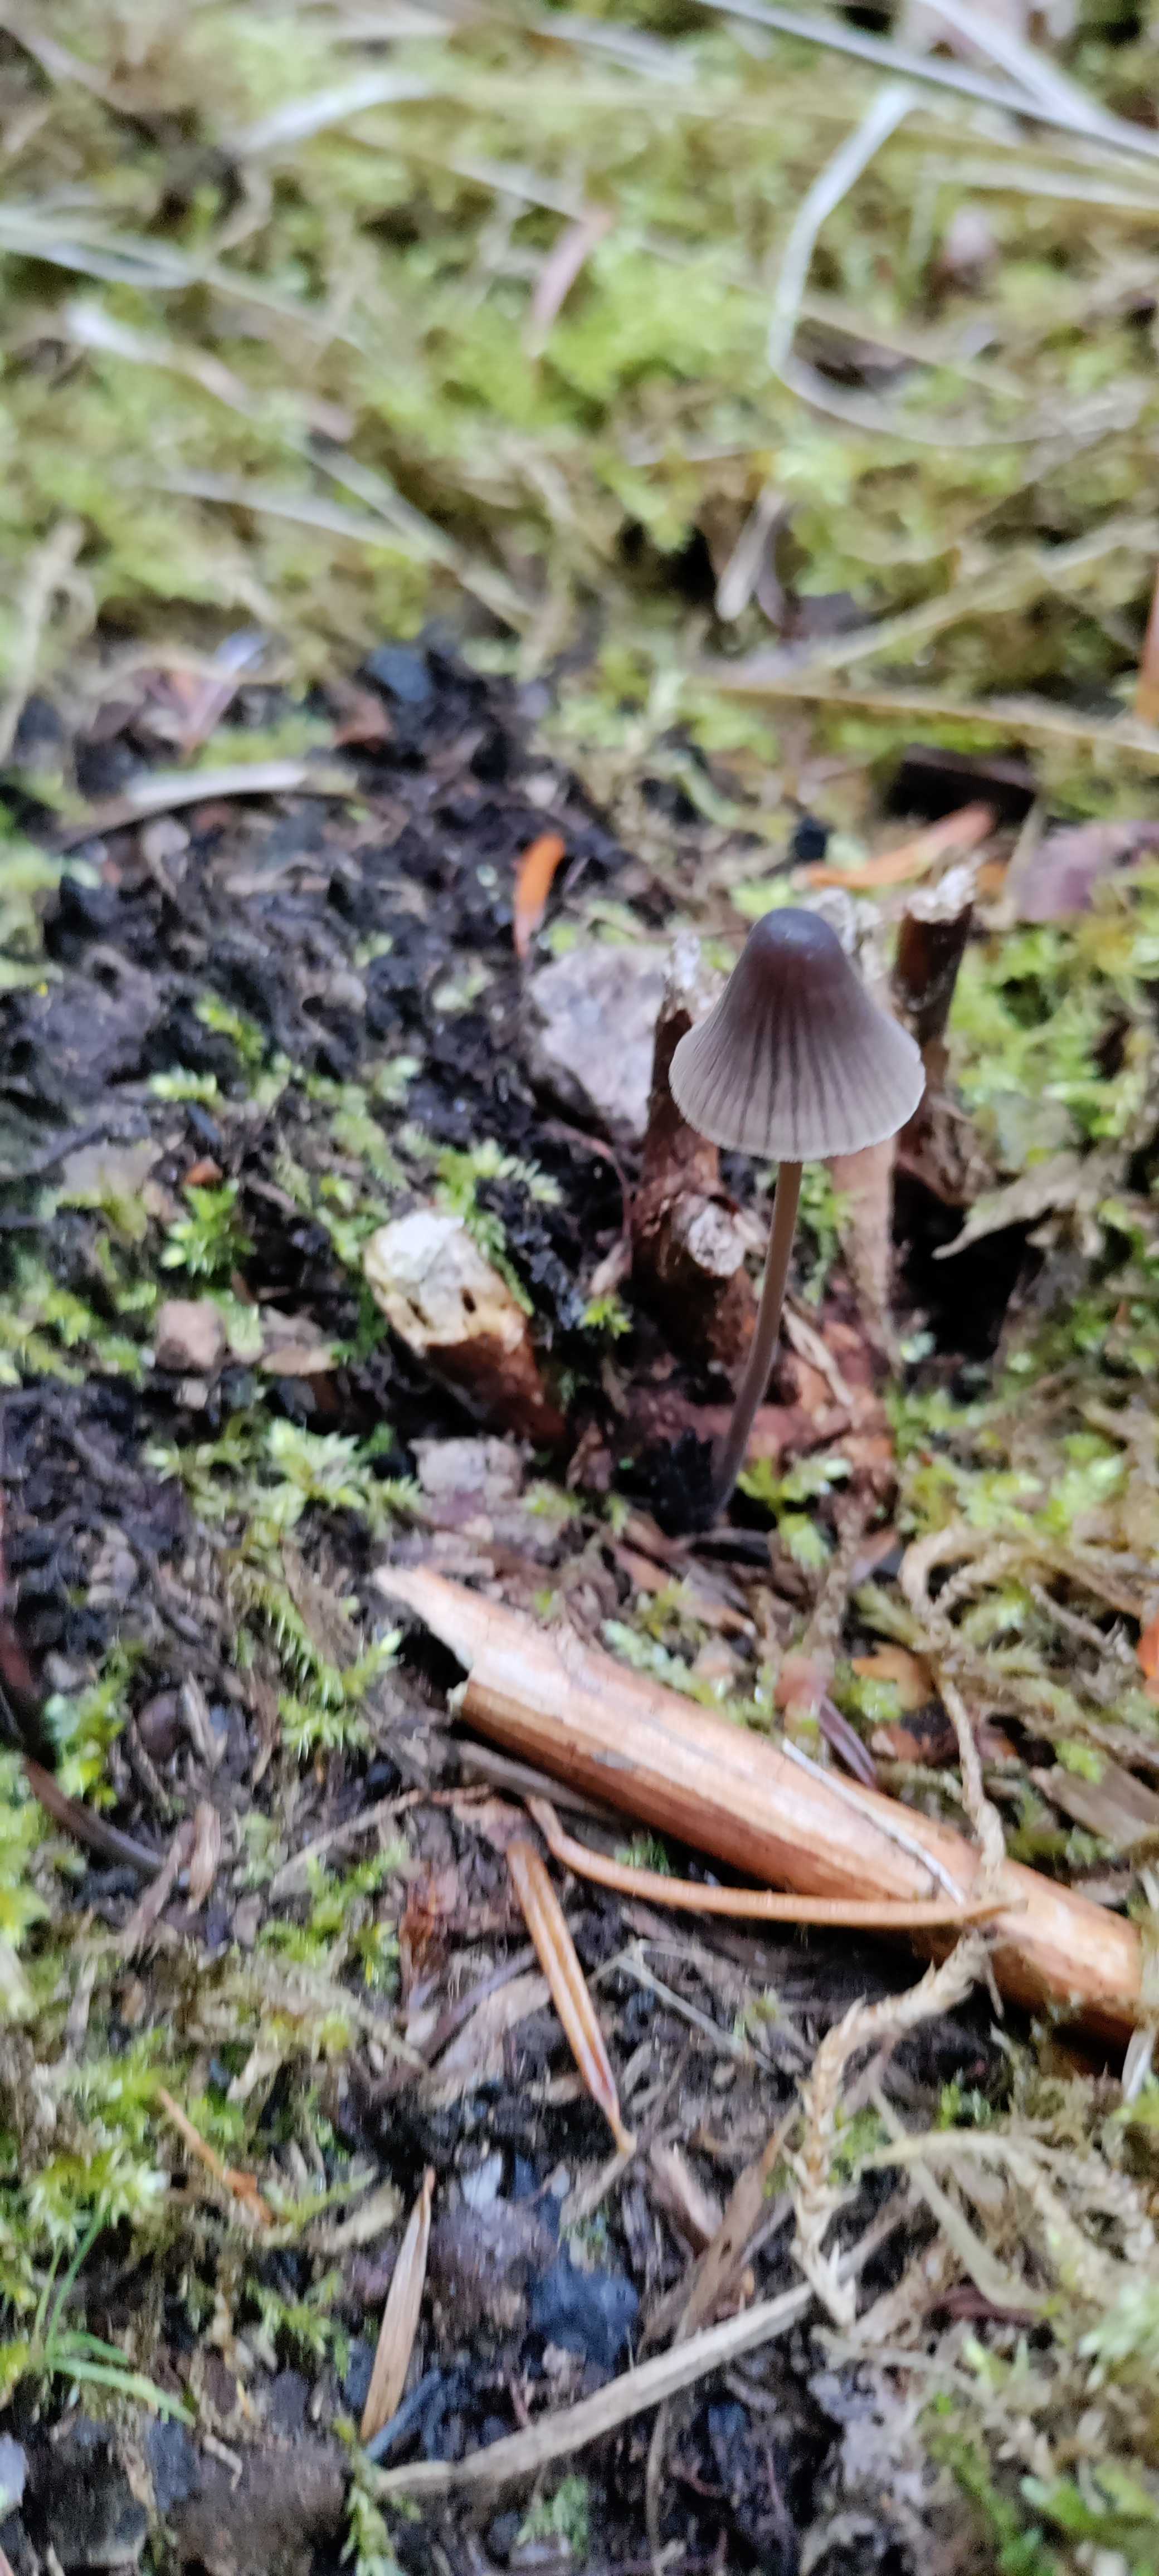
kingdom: Fungi
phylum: Basidiomycota
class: Agaricomycetes
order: Agaricales
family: Mycenaceae
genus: Mycena
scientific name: Mycena
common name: huesvamp
